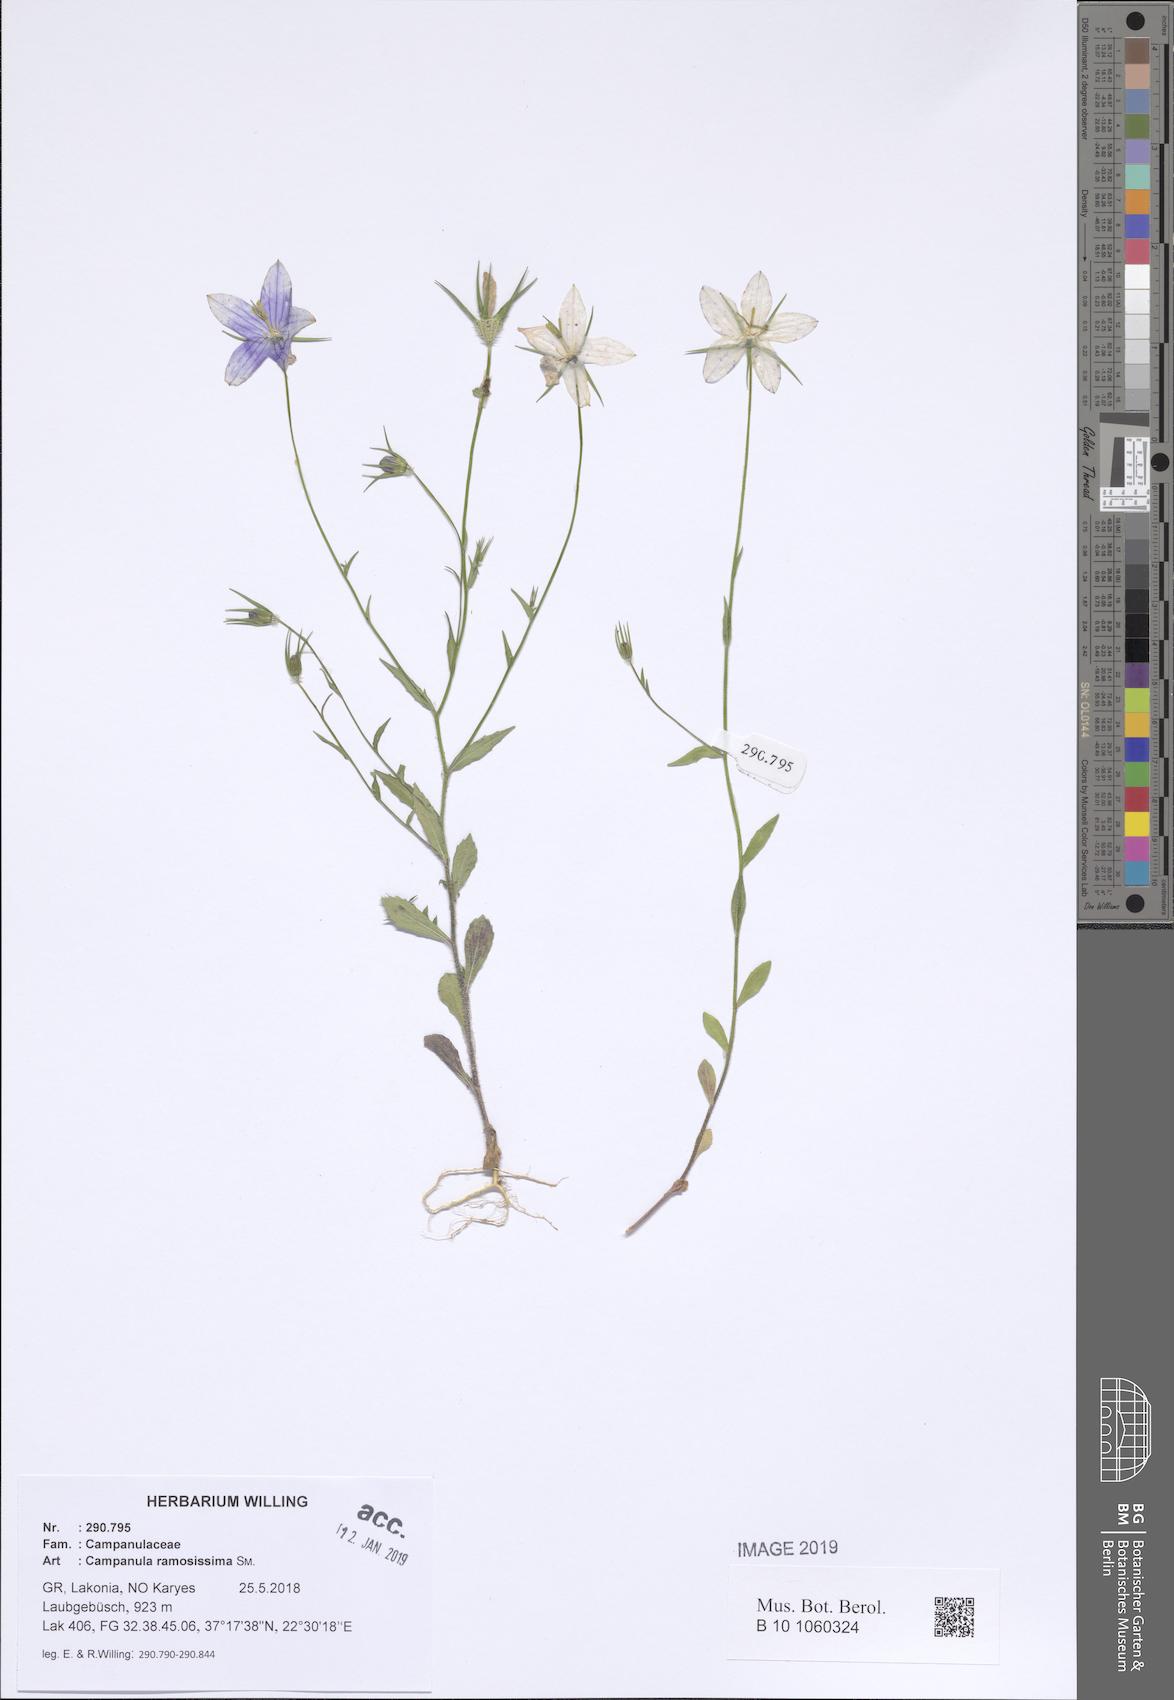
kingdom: Plantae
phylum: Tracheophyta
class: Magnoliopsida
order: Asterales
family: Campanulaceae
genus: Campanula
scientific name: Campanula ramosissima
